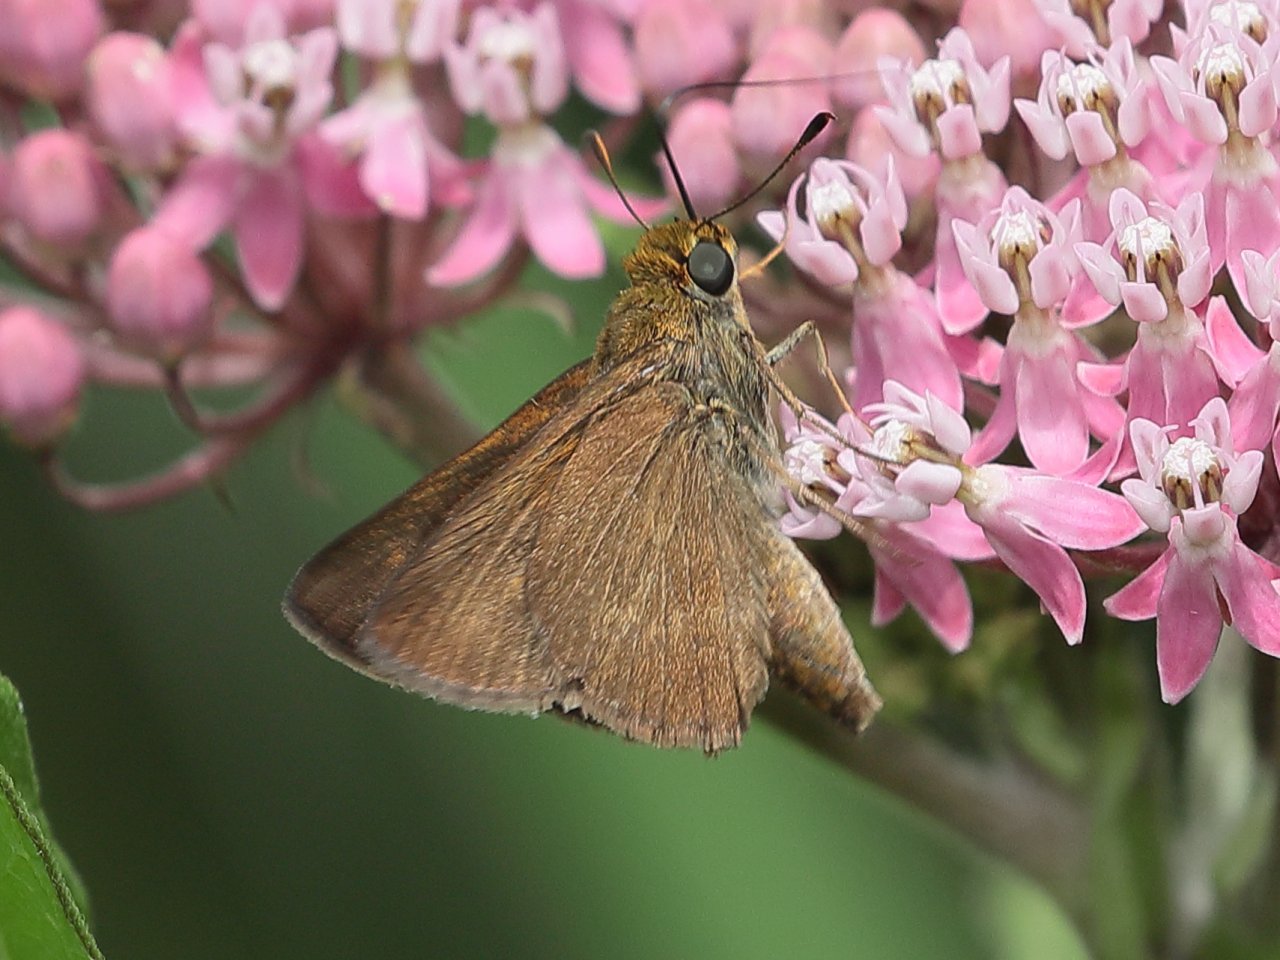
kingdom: Animalia
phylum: Arthropoda
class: Insecta
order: Lepidoptera
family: Hesperiidae
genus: Euphyes
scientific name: Euphyes vestris
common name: Dun Skipper
